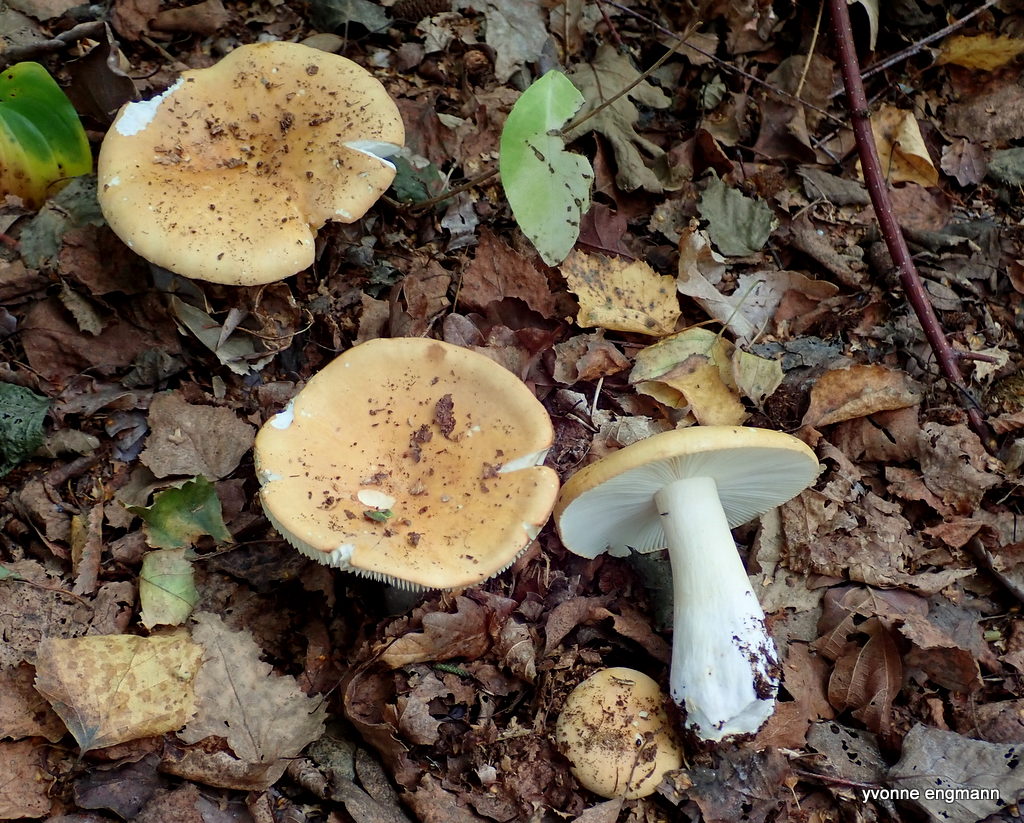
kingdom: Fungi
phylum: Basidiomycota
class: Agaricomycetes
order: Russulales
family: Russulaceae
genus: Russula
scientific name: Russula ochroleuca
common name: okkergul skørhat
